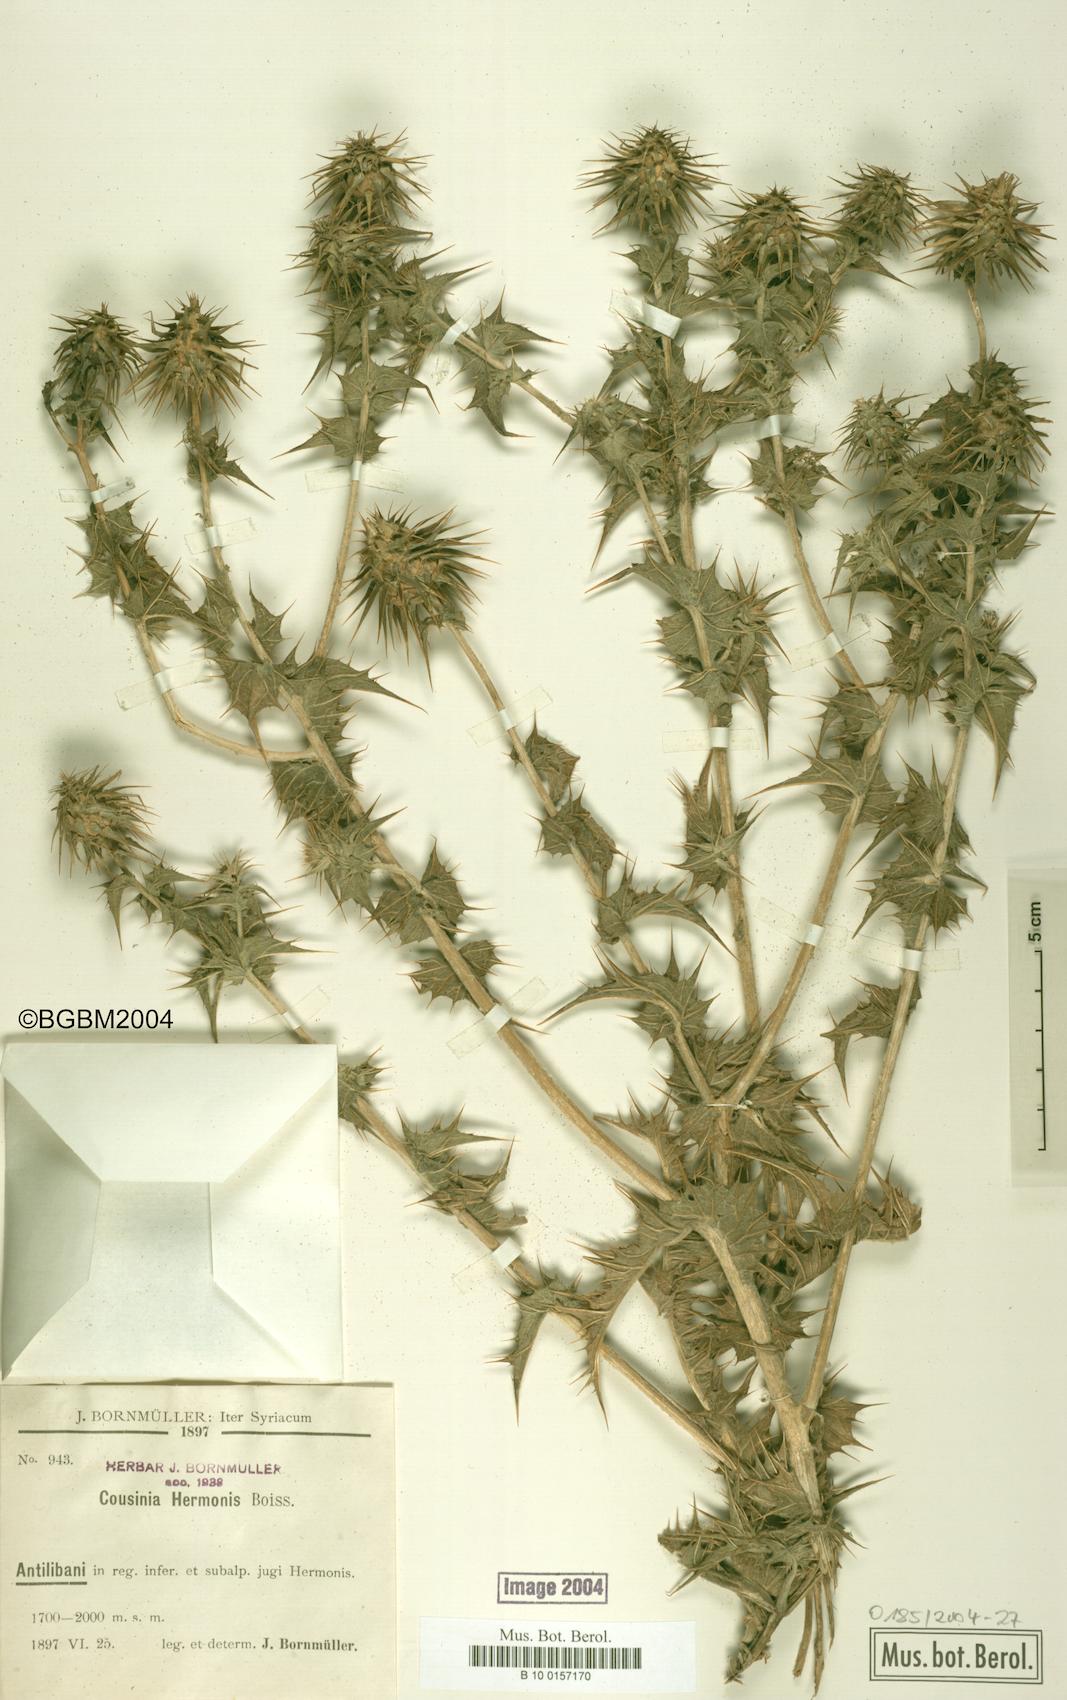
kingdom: Plantae
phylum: Tracheophyta
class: Magnoliopsida
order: Asterales
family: Asteraceae
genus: Cousinia
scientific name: Cousinia libanotica
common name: Lebanon cousinia
